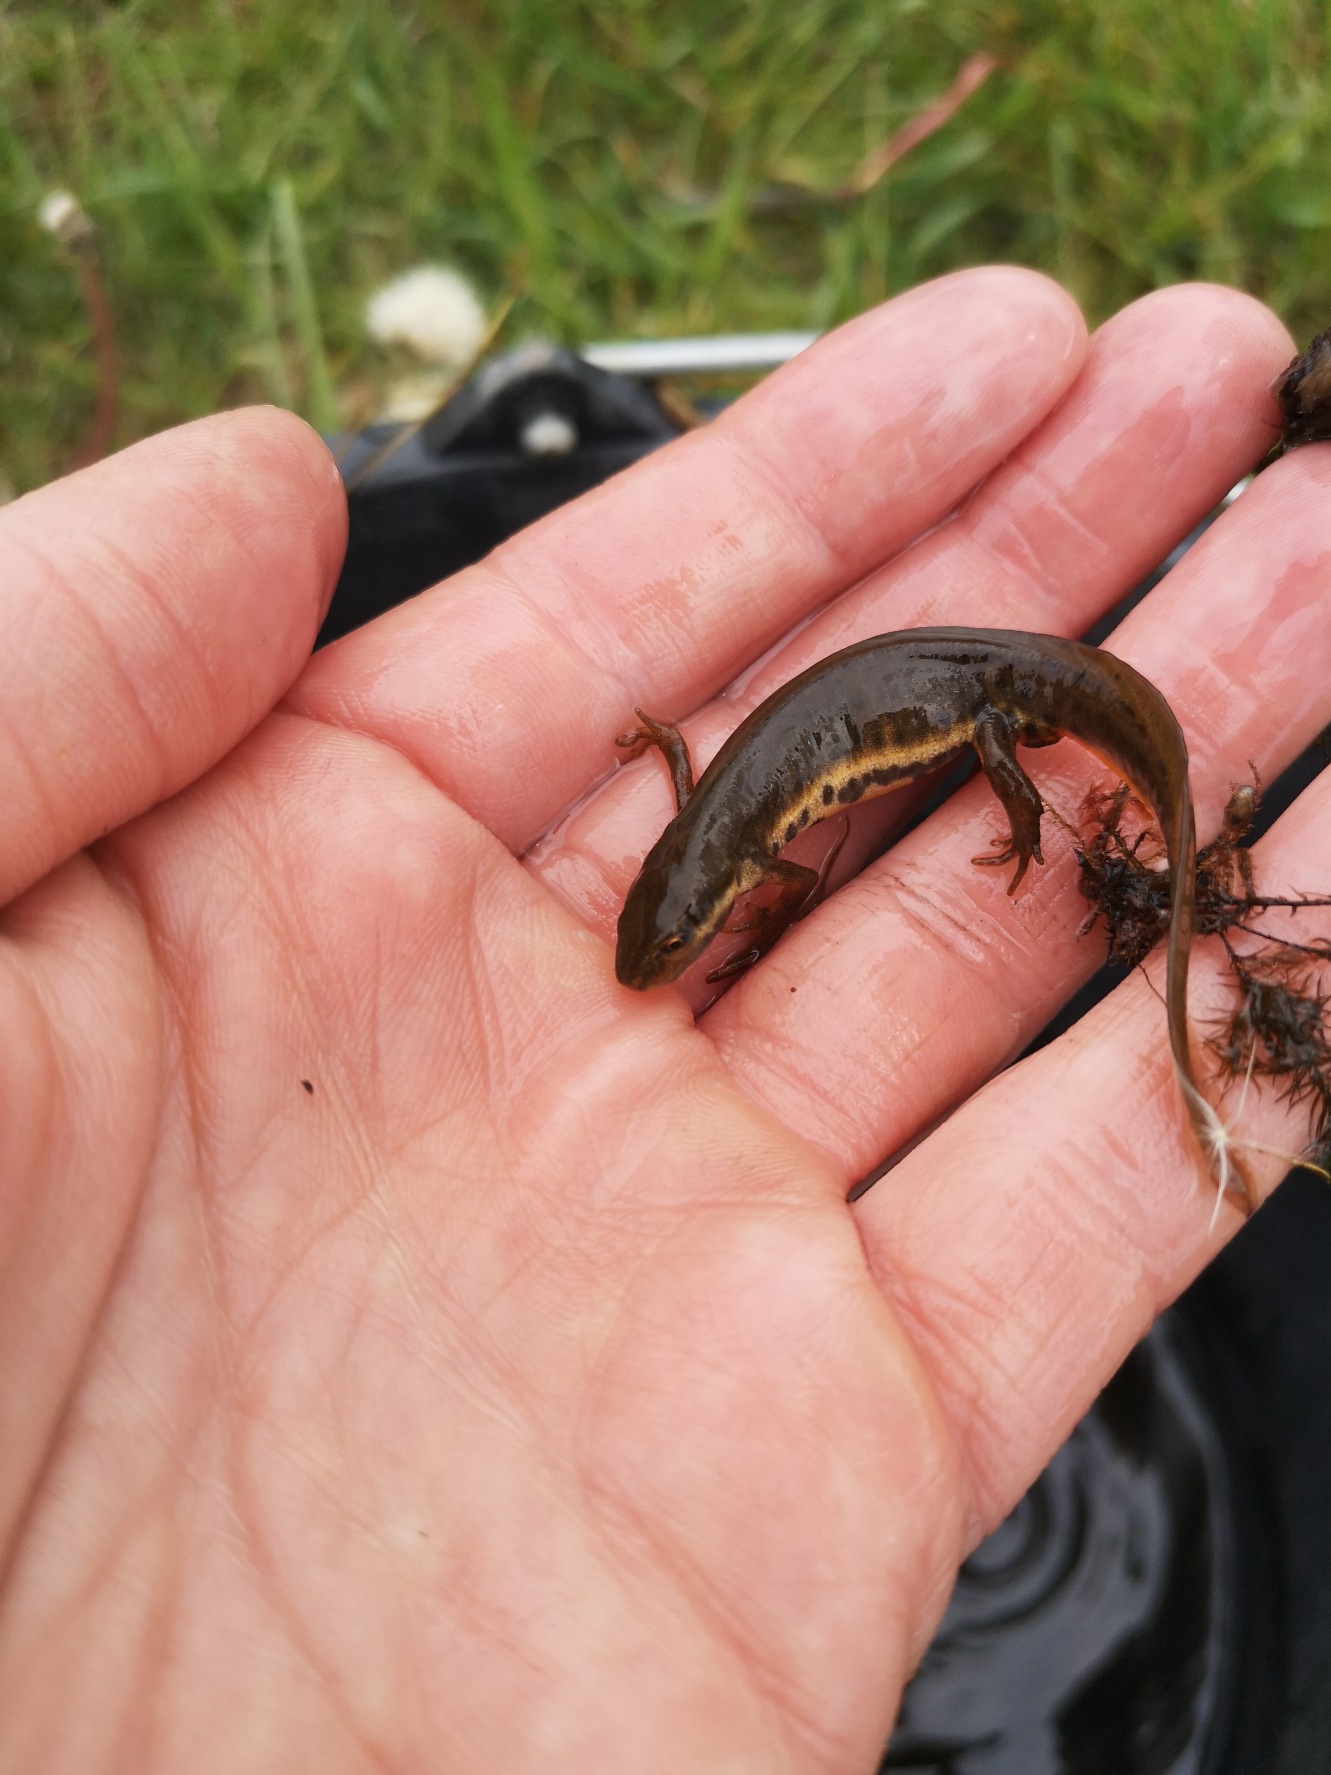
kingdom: Animalia
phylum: Chordata
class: Amphibia
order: Caudata
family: Salamandridae
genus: Lissotriton
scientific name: Lissotriton vulgaris
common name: Lille vandsalamander
